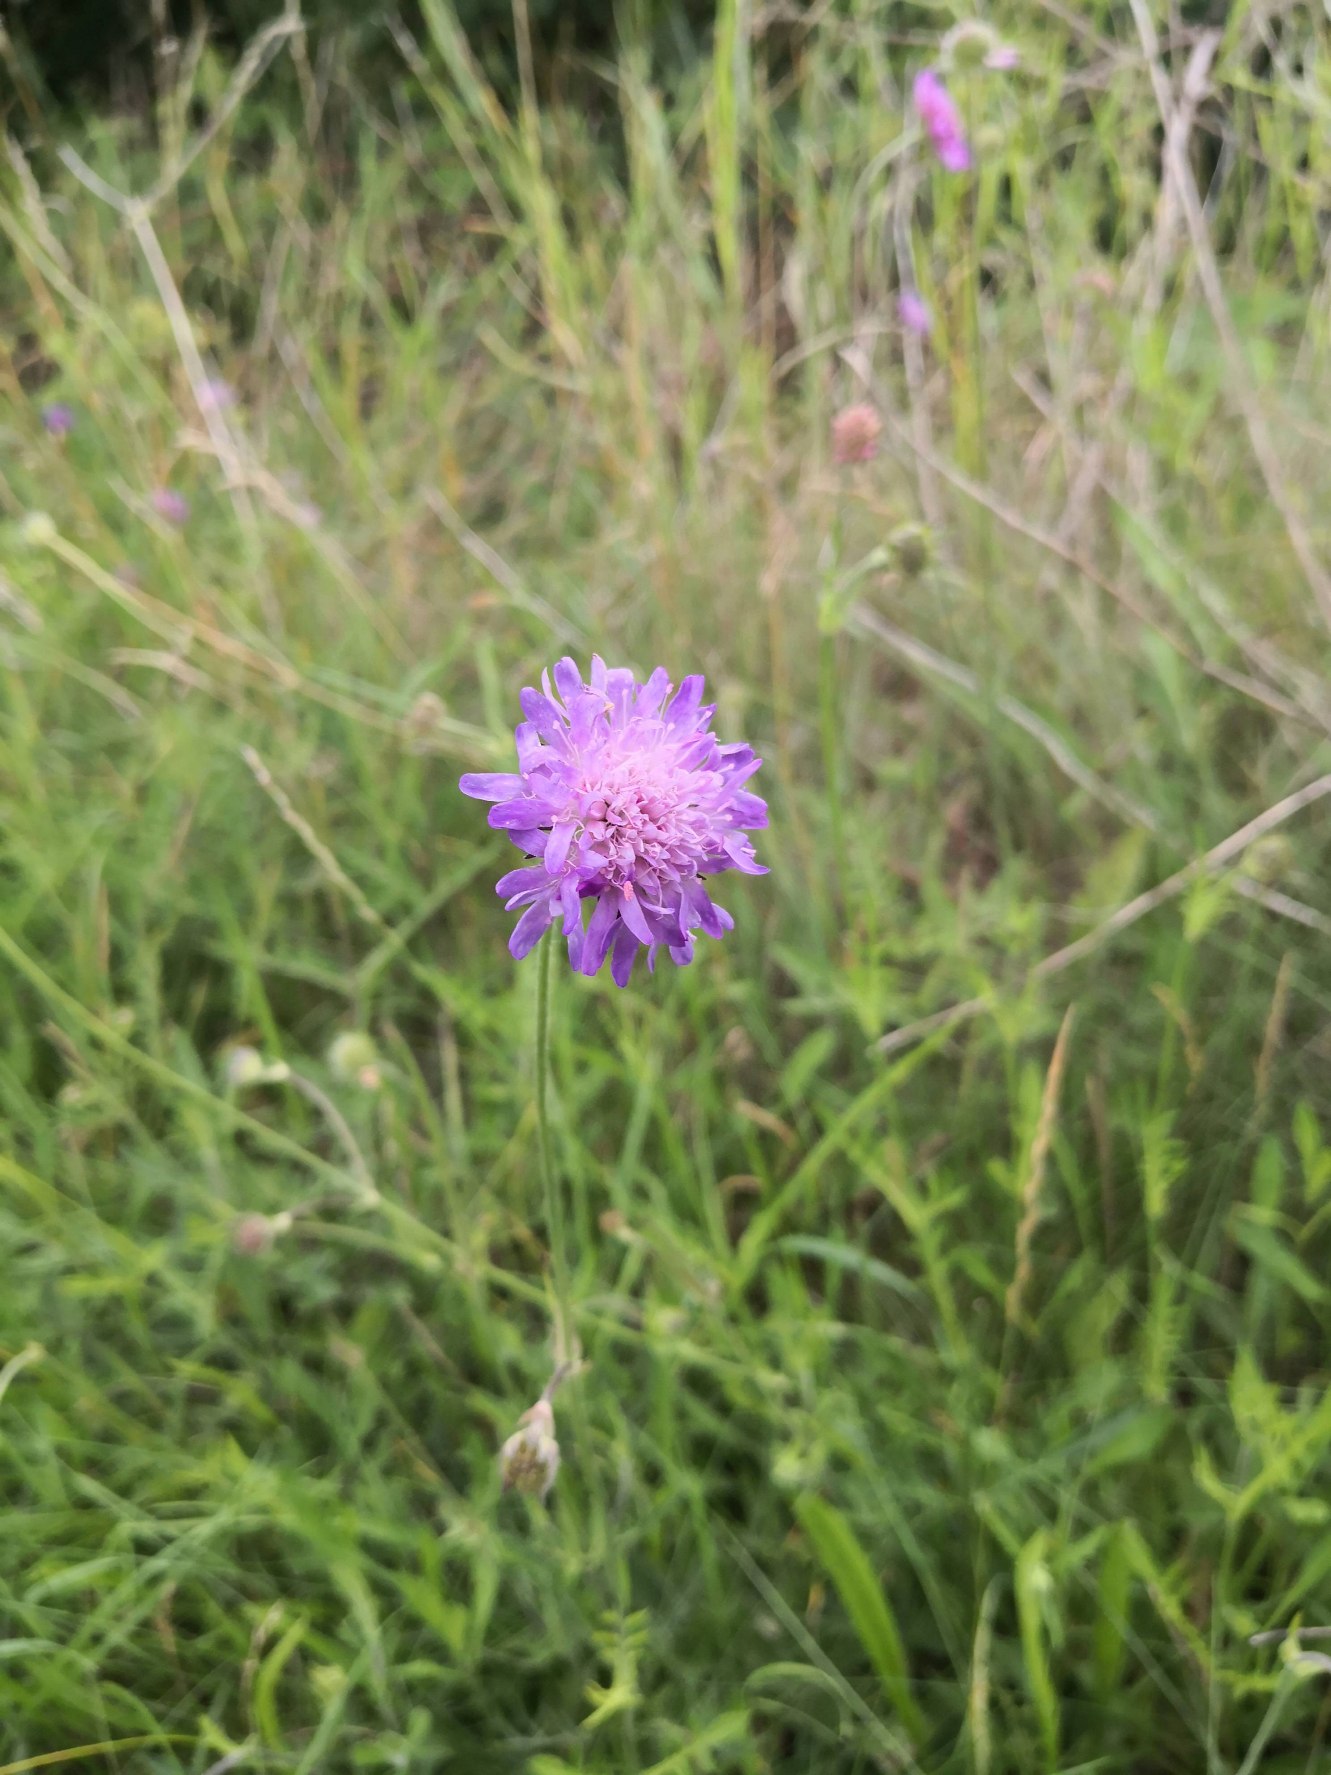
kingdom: Plantae
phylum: Tracheophyta
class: Magnoliopsida
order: Dipsacales
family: Caprifoliaceae
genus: Knautia
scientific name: Knautia arvensis
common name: Blåhat
